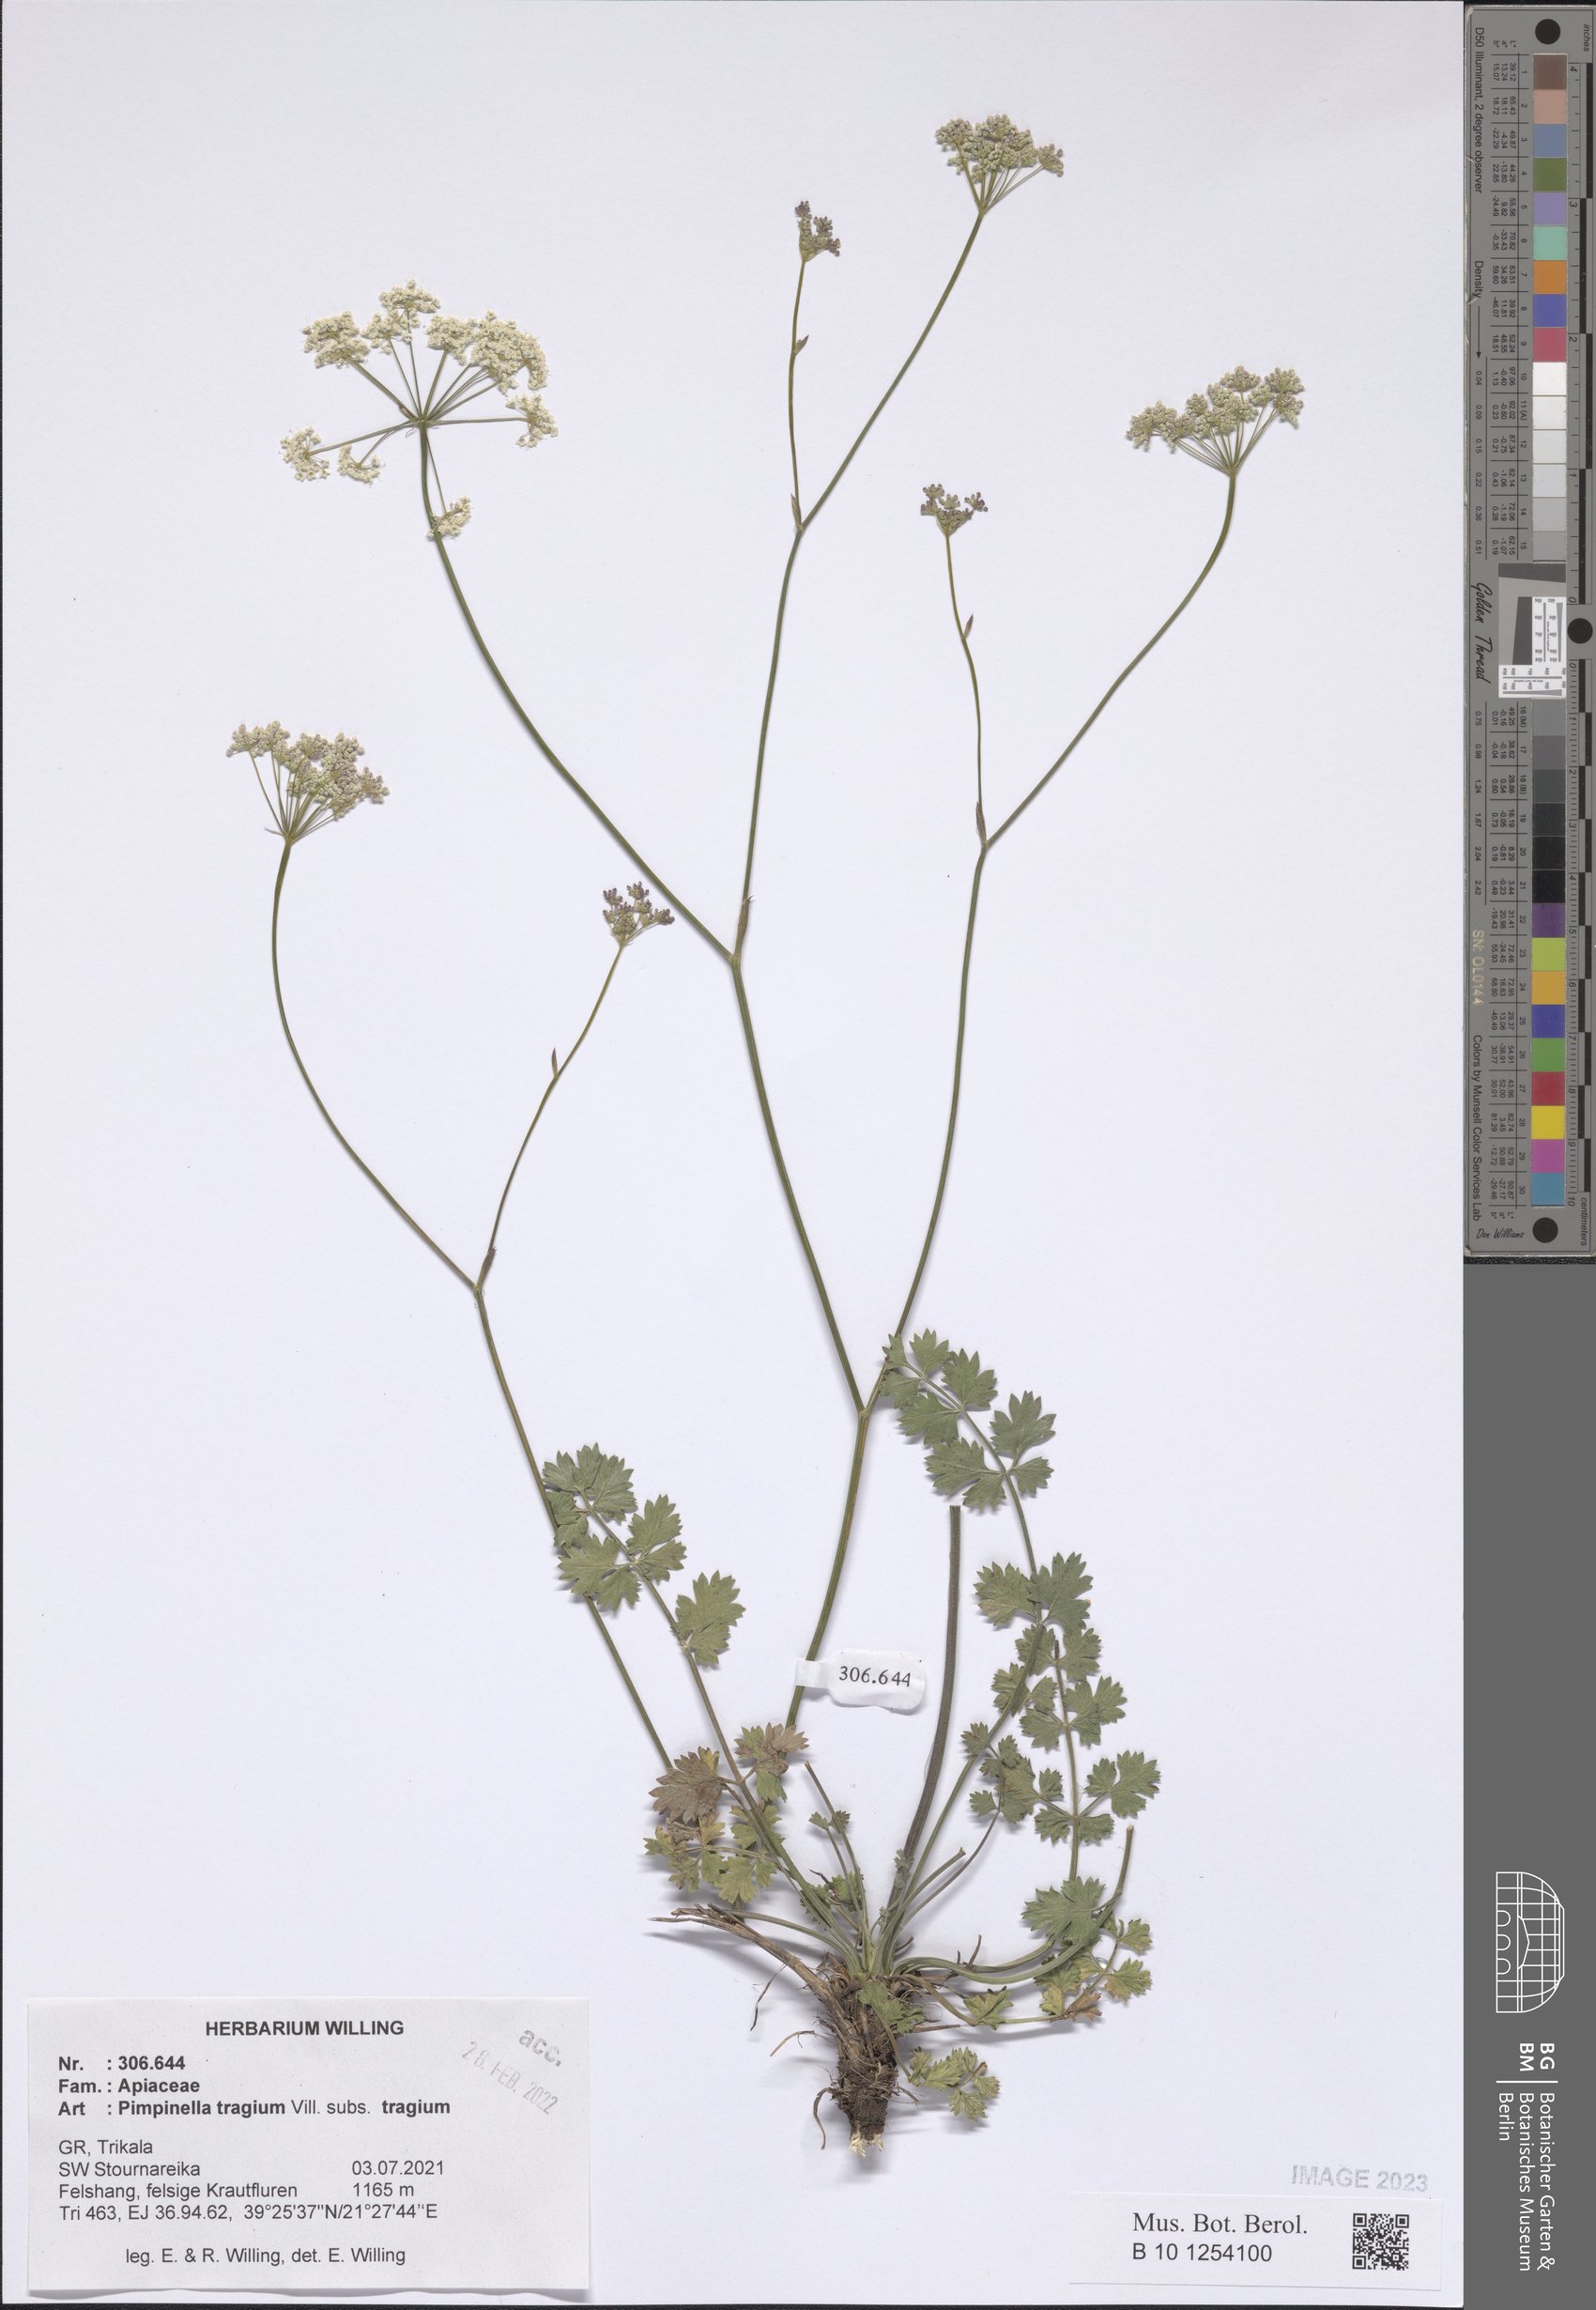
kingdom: Plantae
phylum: Tracheophyta
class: Magnoliopsida
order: Apiales
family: Apiaceae
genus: Pimpinella
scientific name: Pimpinella tragium
